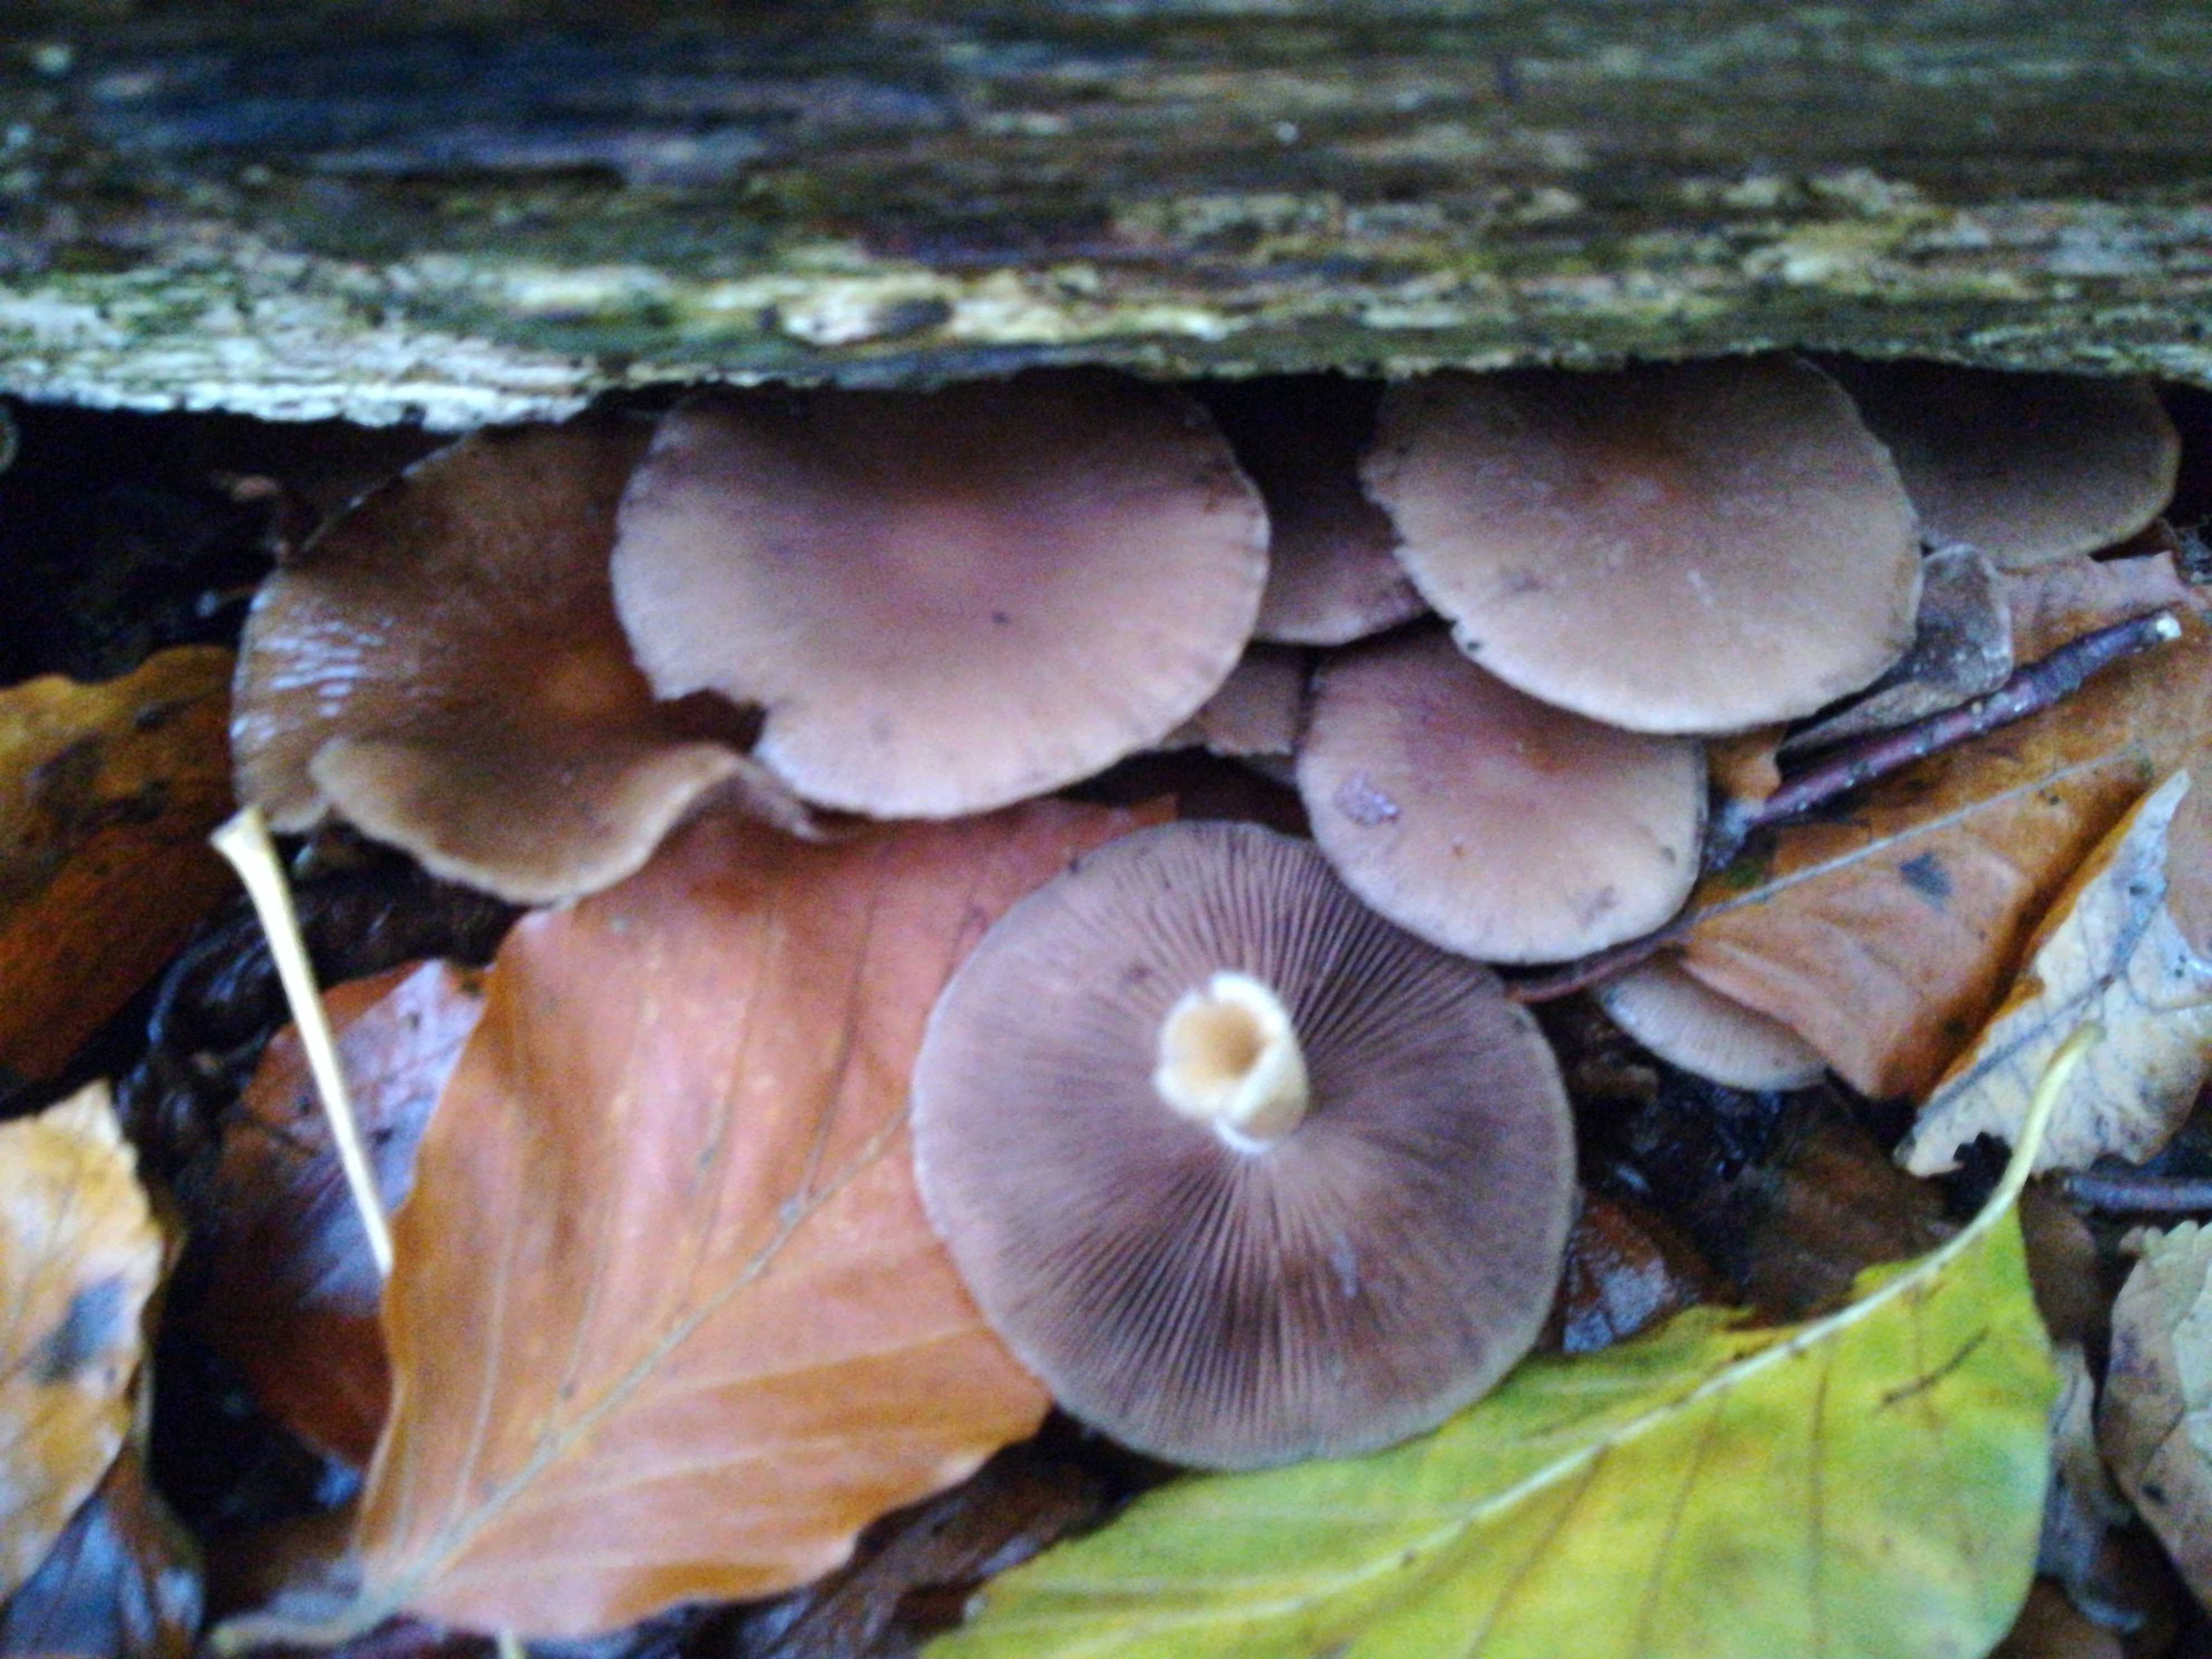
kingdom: Fungi
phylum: Basidiomycota
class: Agaricomycetes
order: Agaricales
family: Psathyrellaceae
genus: Psathyrella
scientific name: Psathyrella piluliformis
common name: lysstokket mørkhat
